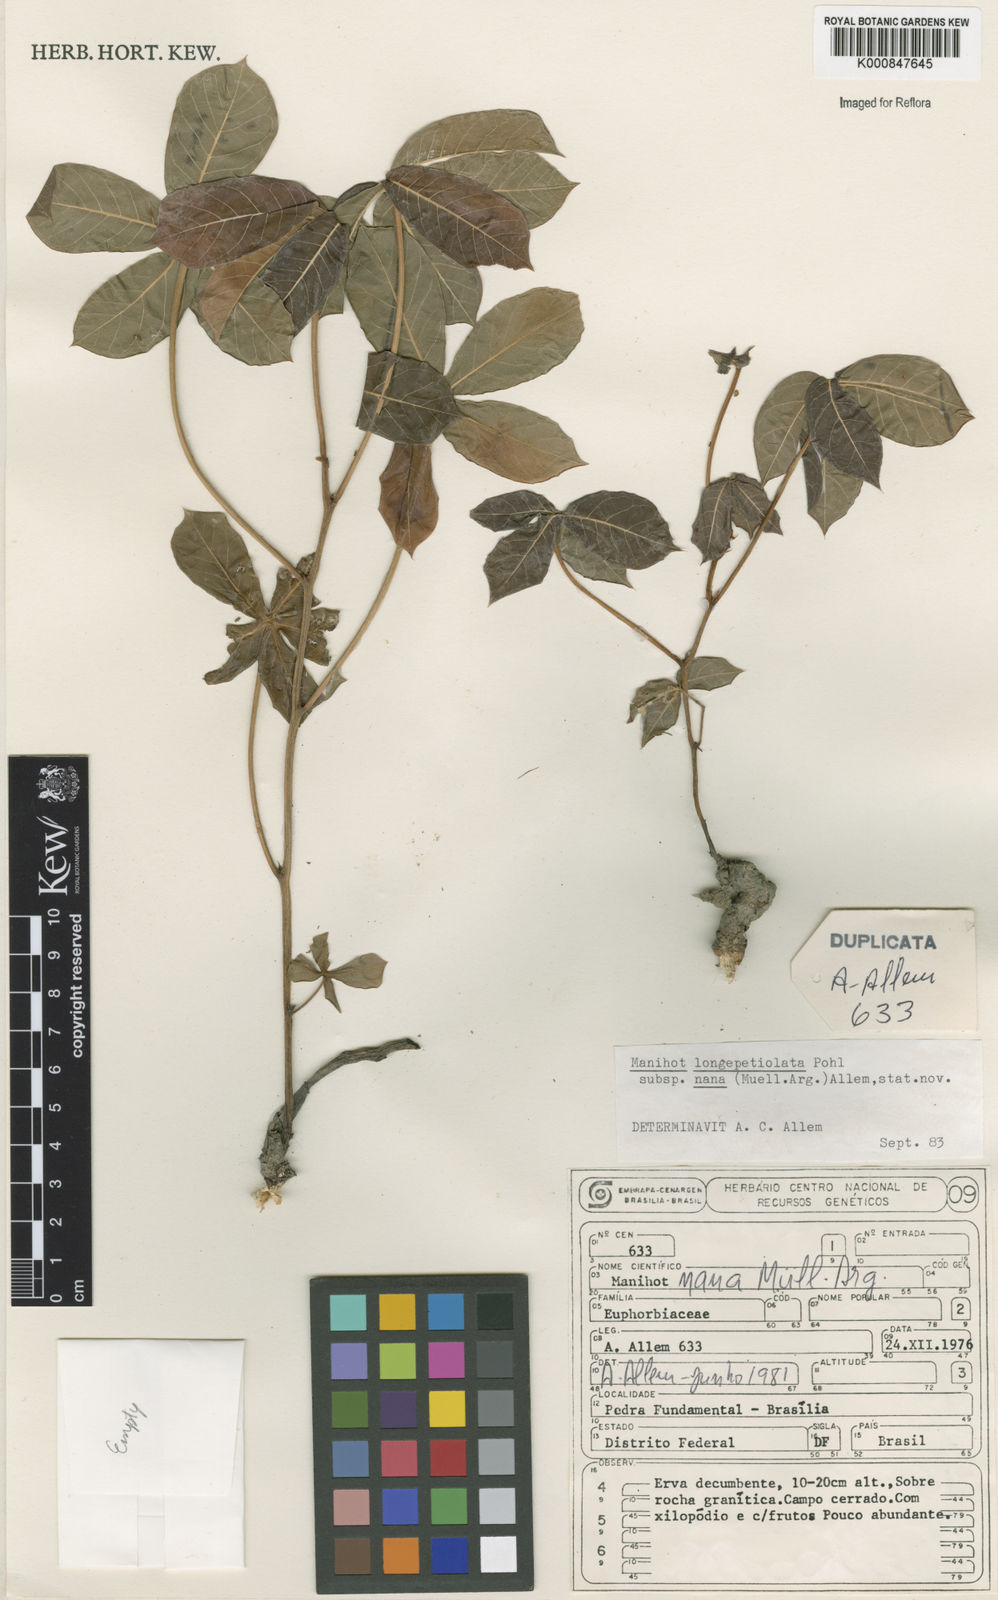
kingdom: Plantae
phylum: Tracheophyta
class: Magnoliopsida
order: Malpighiales
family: Euphorbiaceae
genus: Manihot
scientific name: Manihot
